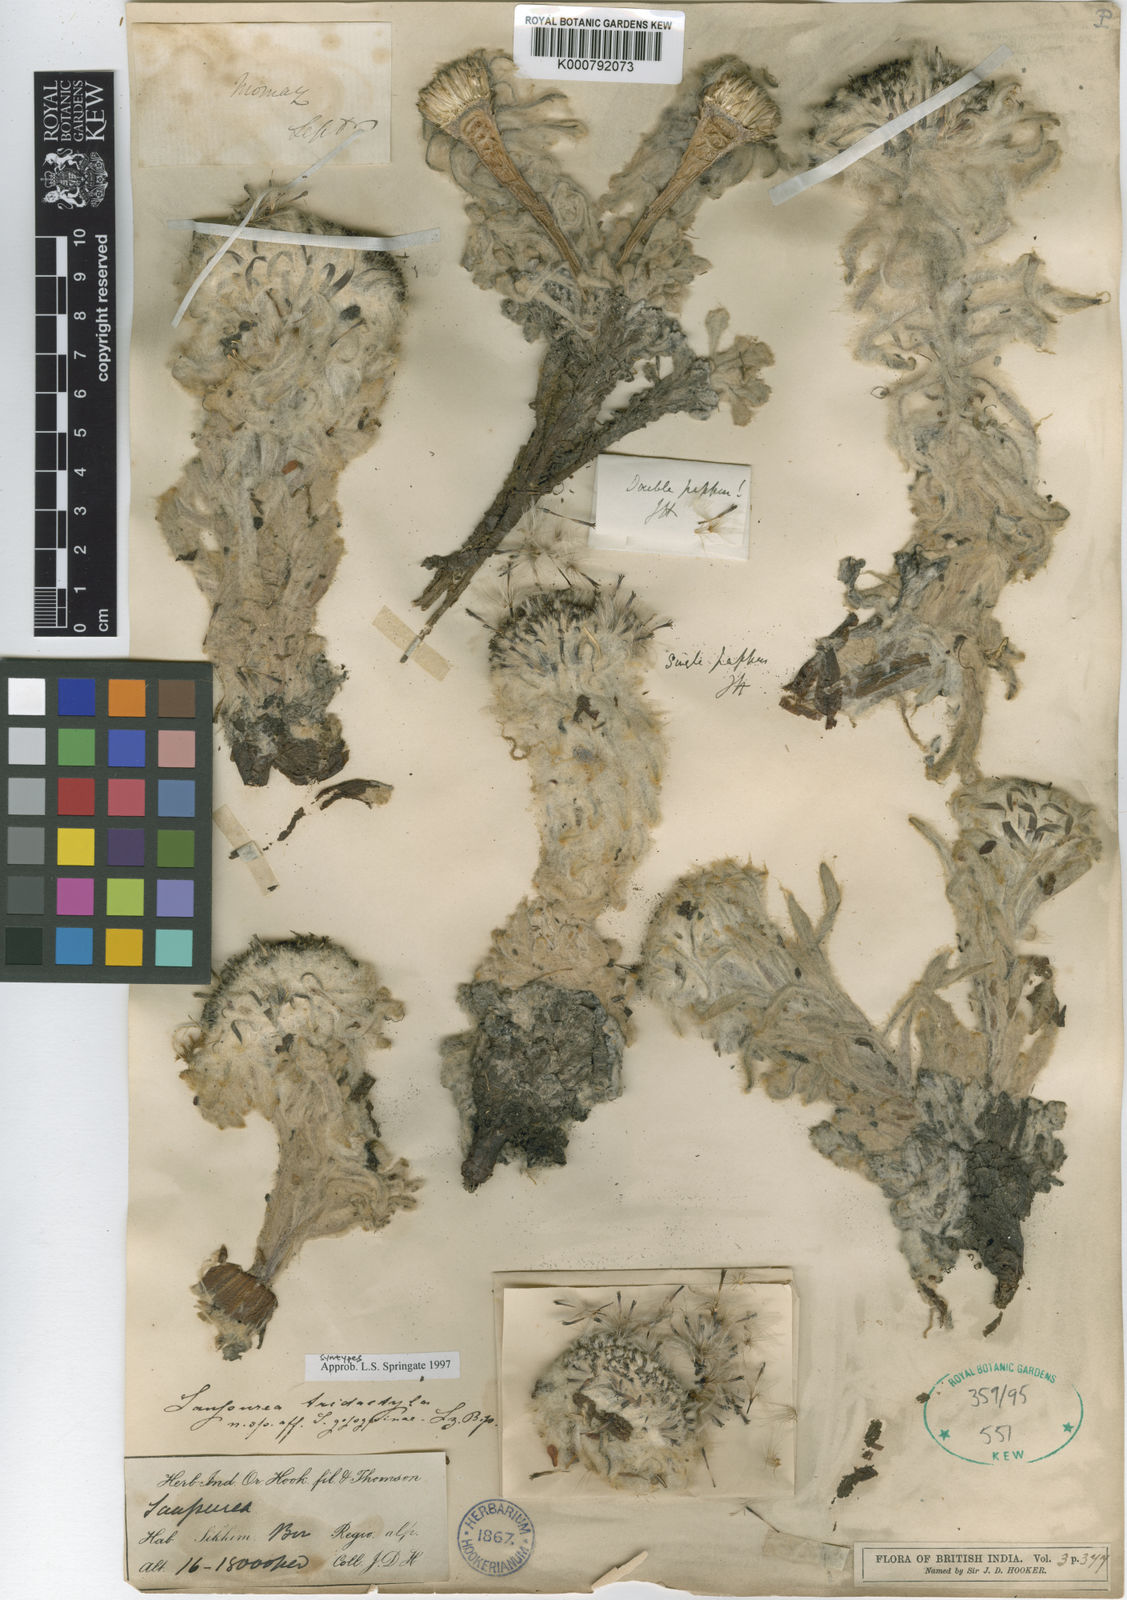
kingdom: Plantae
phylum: Tracheophyta
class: Magnoliopsida
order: Asterales
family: Asteraceae
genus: Saussurea
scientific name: Saussurea tridactyla
